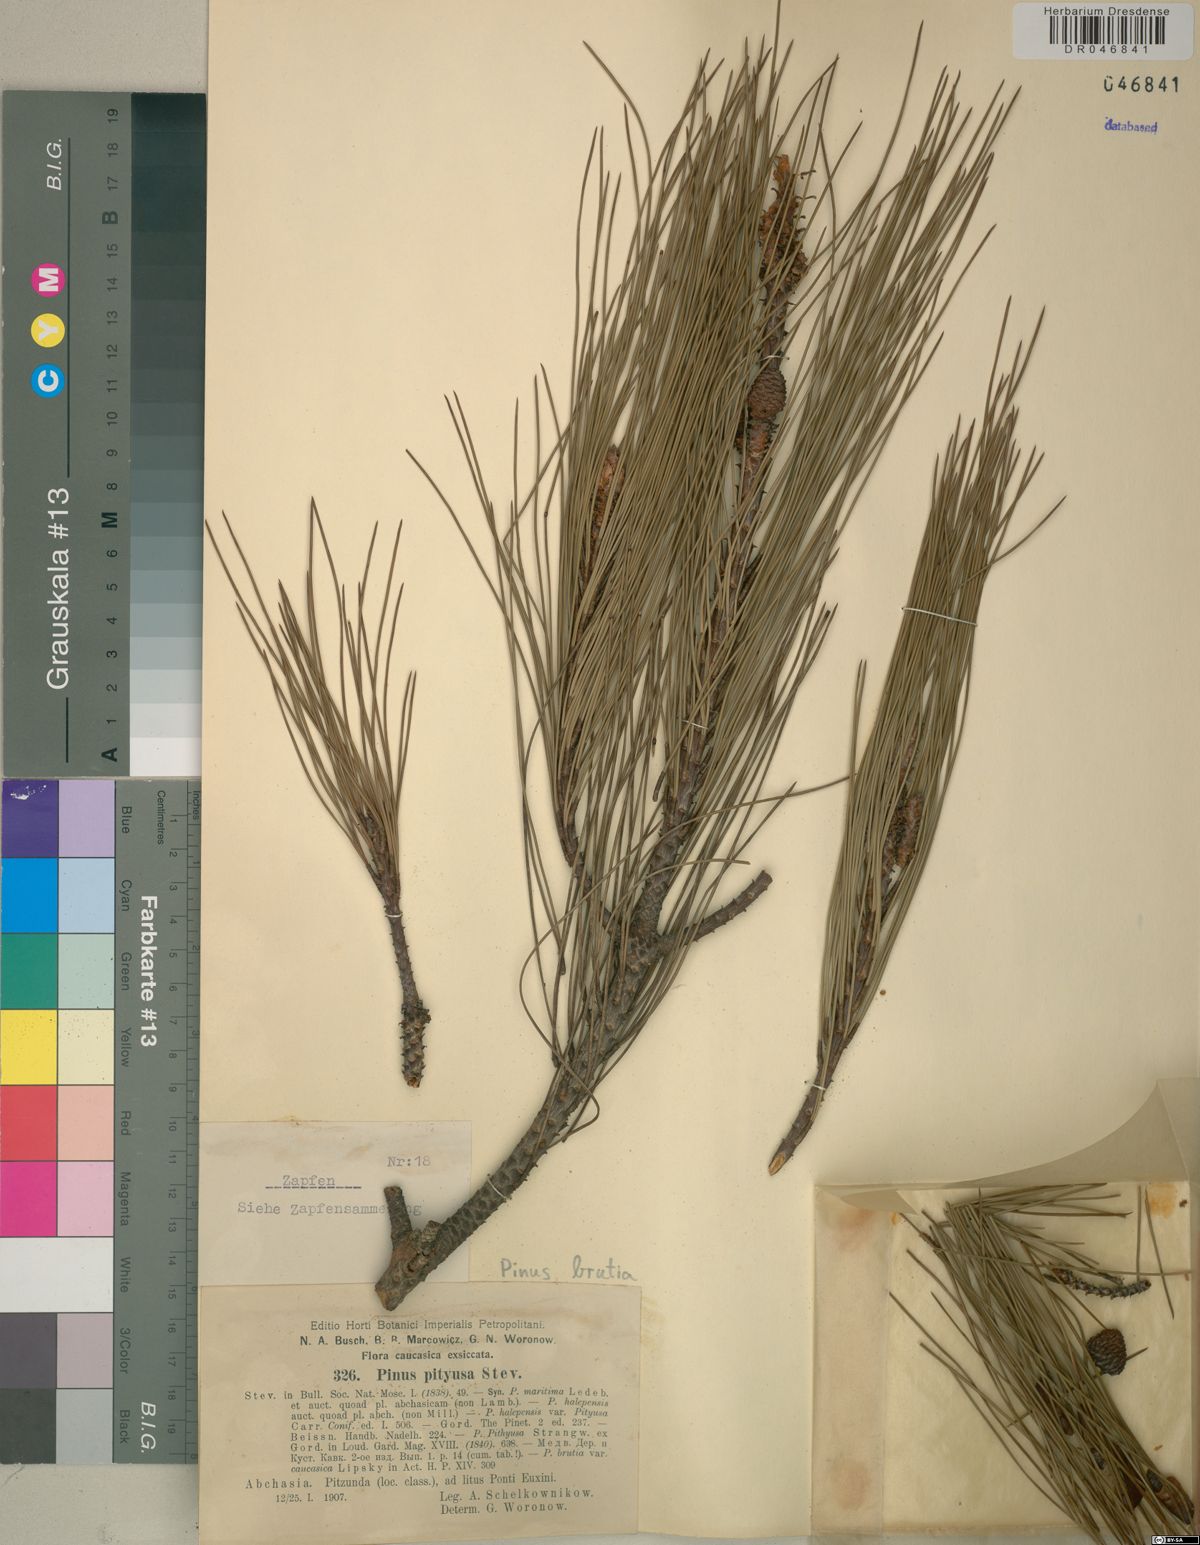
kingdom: Plantae
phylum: Tracheophyta
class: Pinopsida
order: Pinales
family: Pinaceae
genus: Pinus
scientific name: Pinus brutia
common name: Turkish pine
